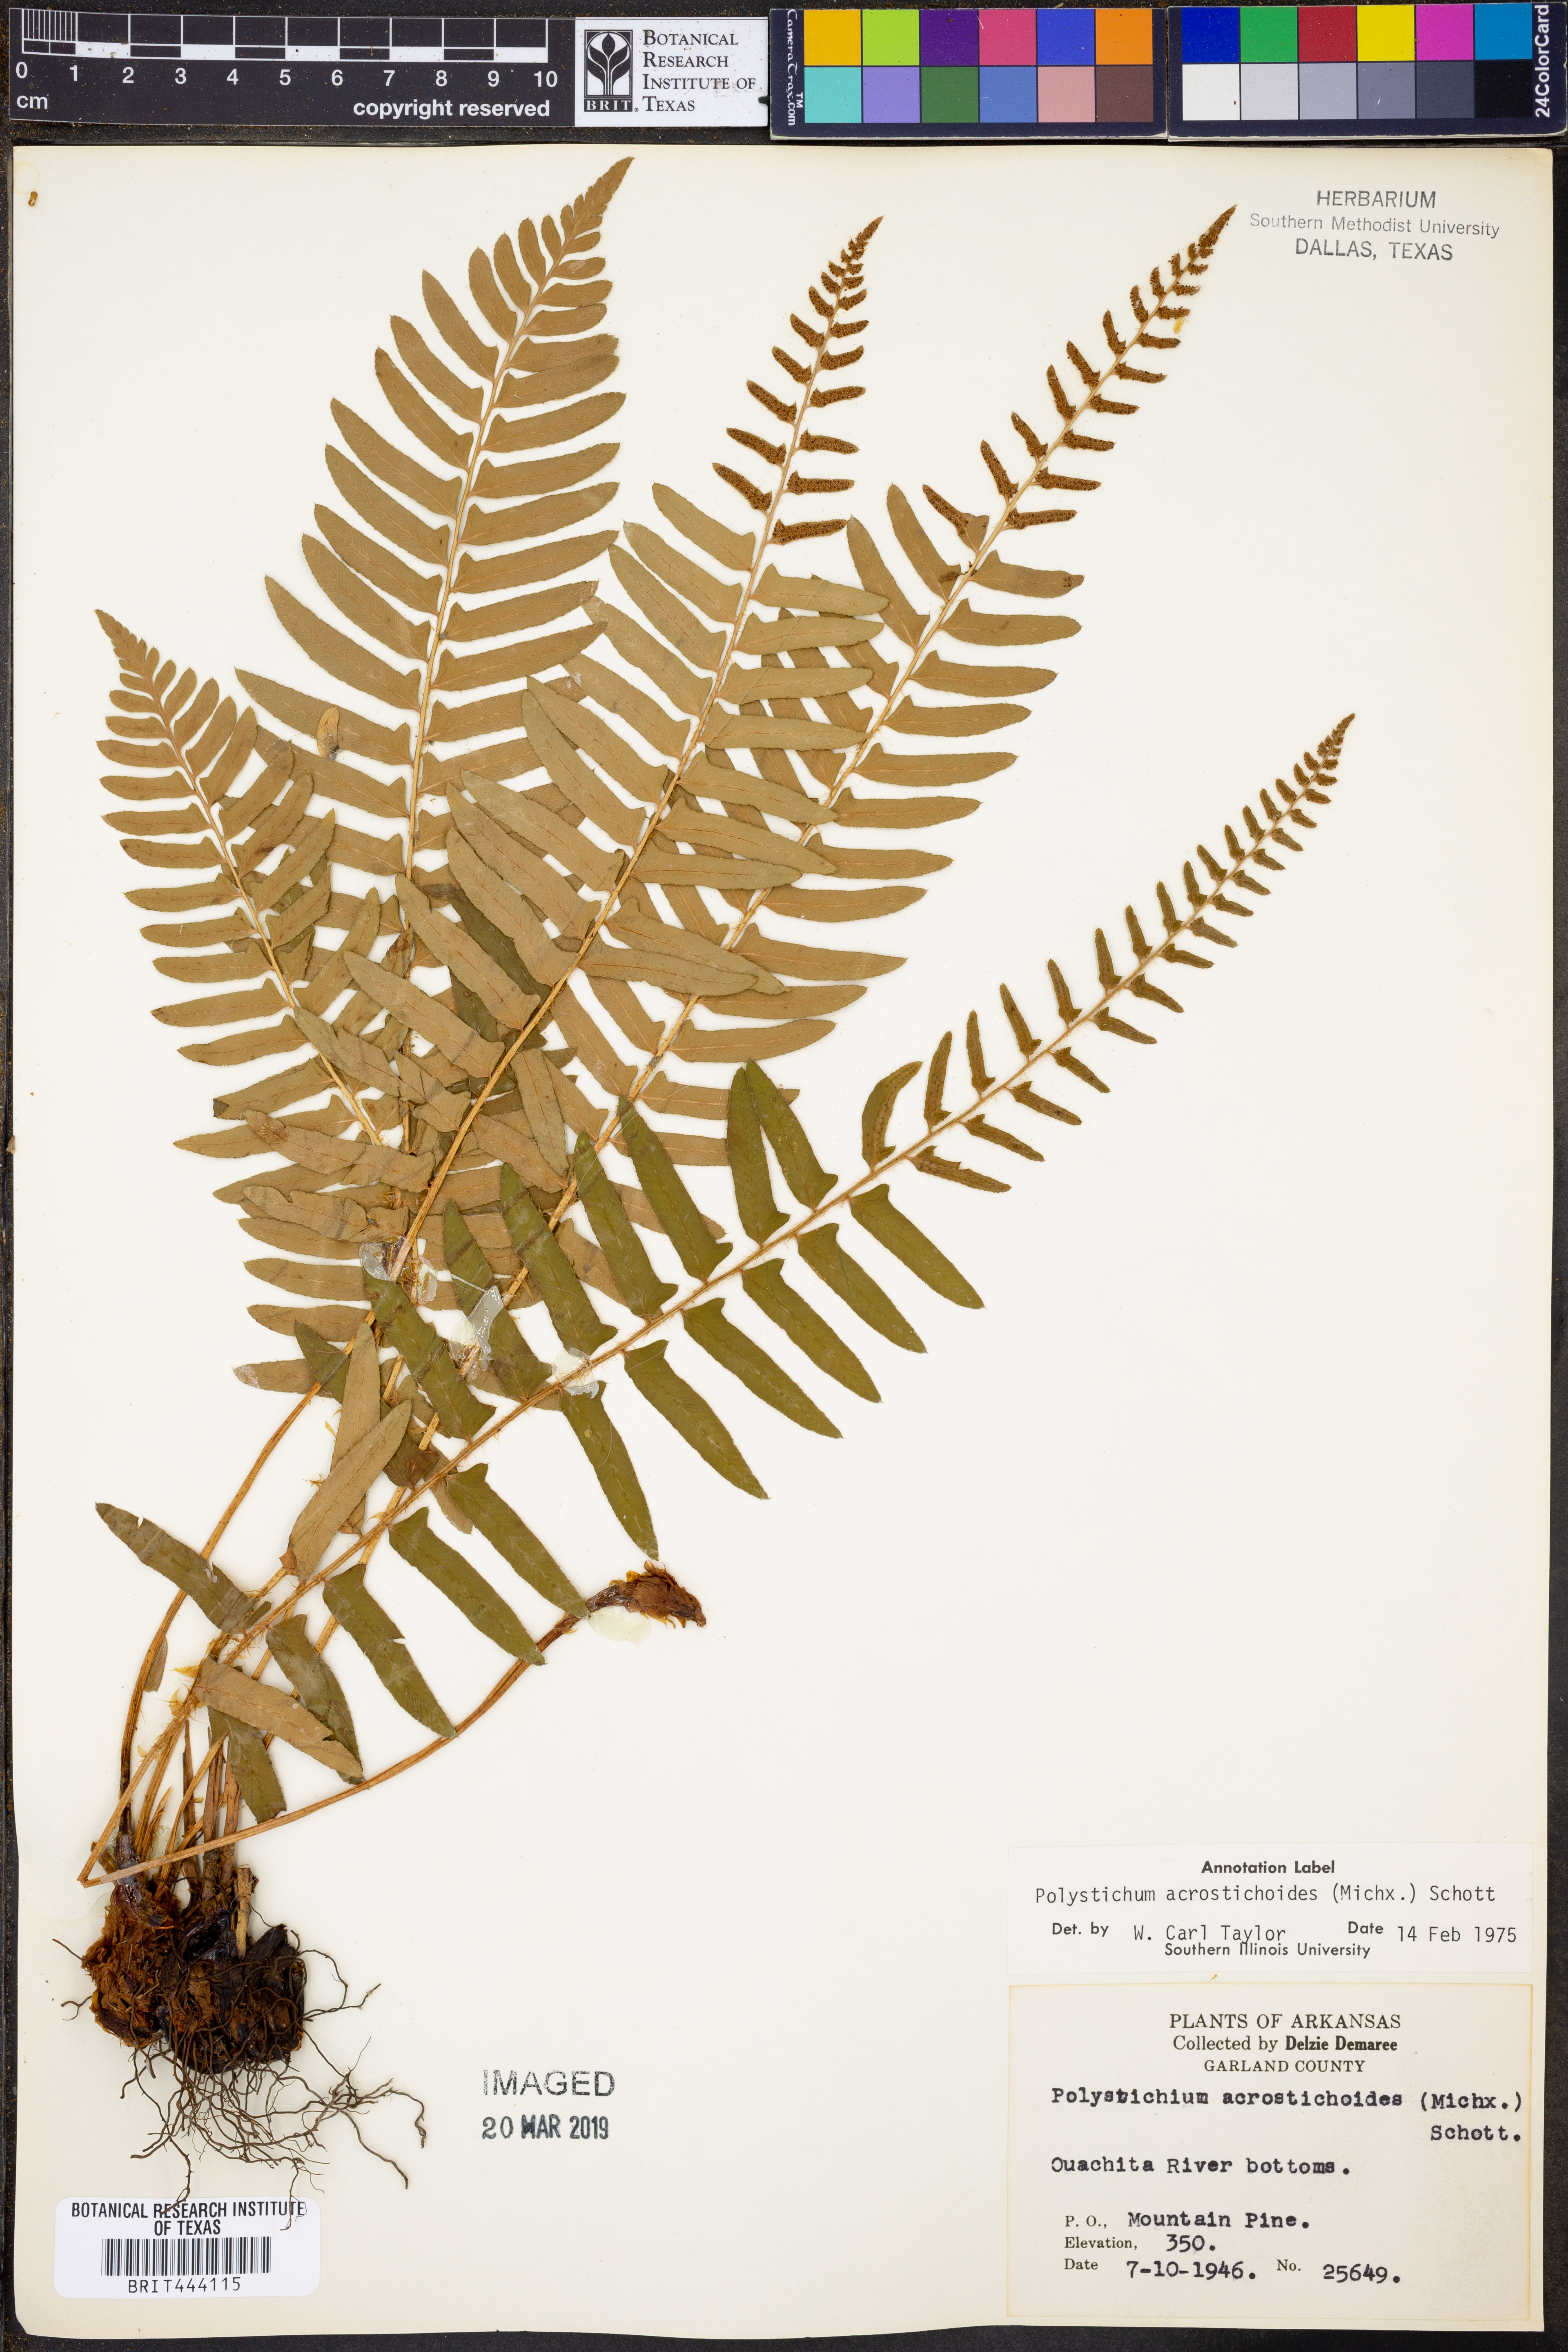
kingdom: Plantae
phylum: Tracheophyta
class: Polypodiopsida
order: Polypodiales
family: Dryopteridaceae
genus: Polystichum
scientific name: Polystichum acrostichoides
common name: Christmas fern
